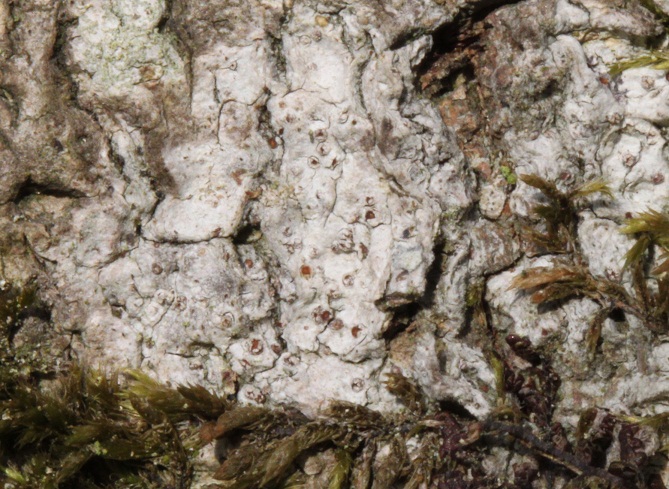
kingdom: Fungi
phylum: Ascomycota
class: Lecanoromycetes
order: Gyalectales
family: Gyalectaceae
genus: Pachyphiale
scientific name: Pachyphiale carneola
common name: rødbrun gammelskovslav
